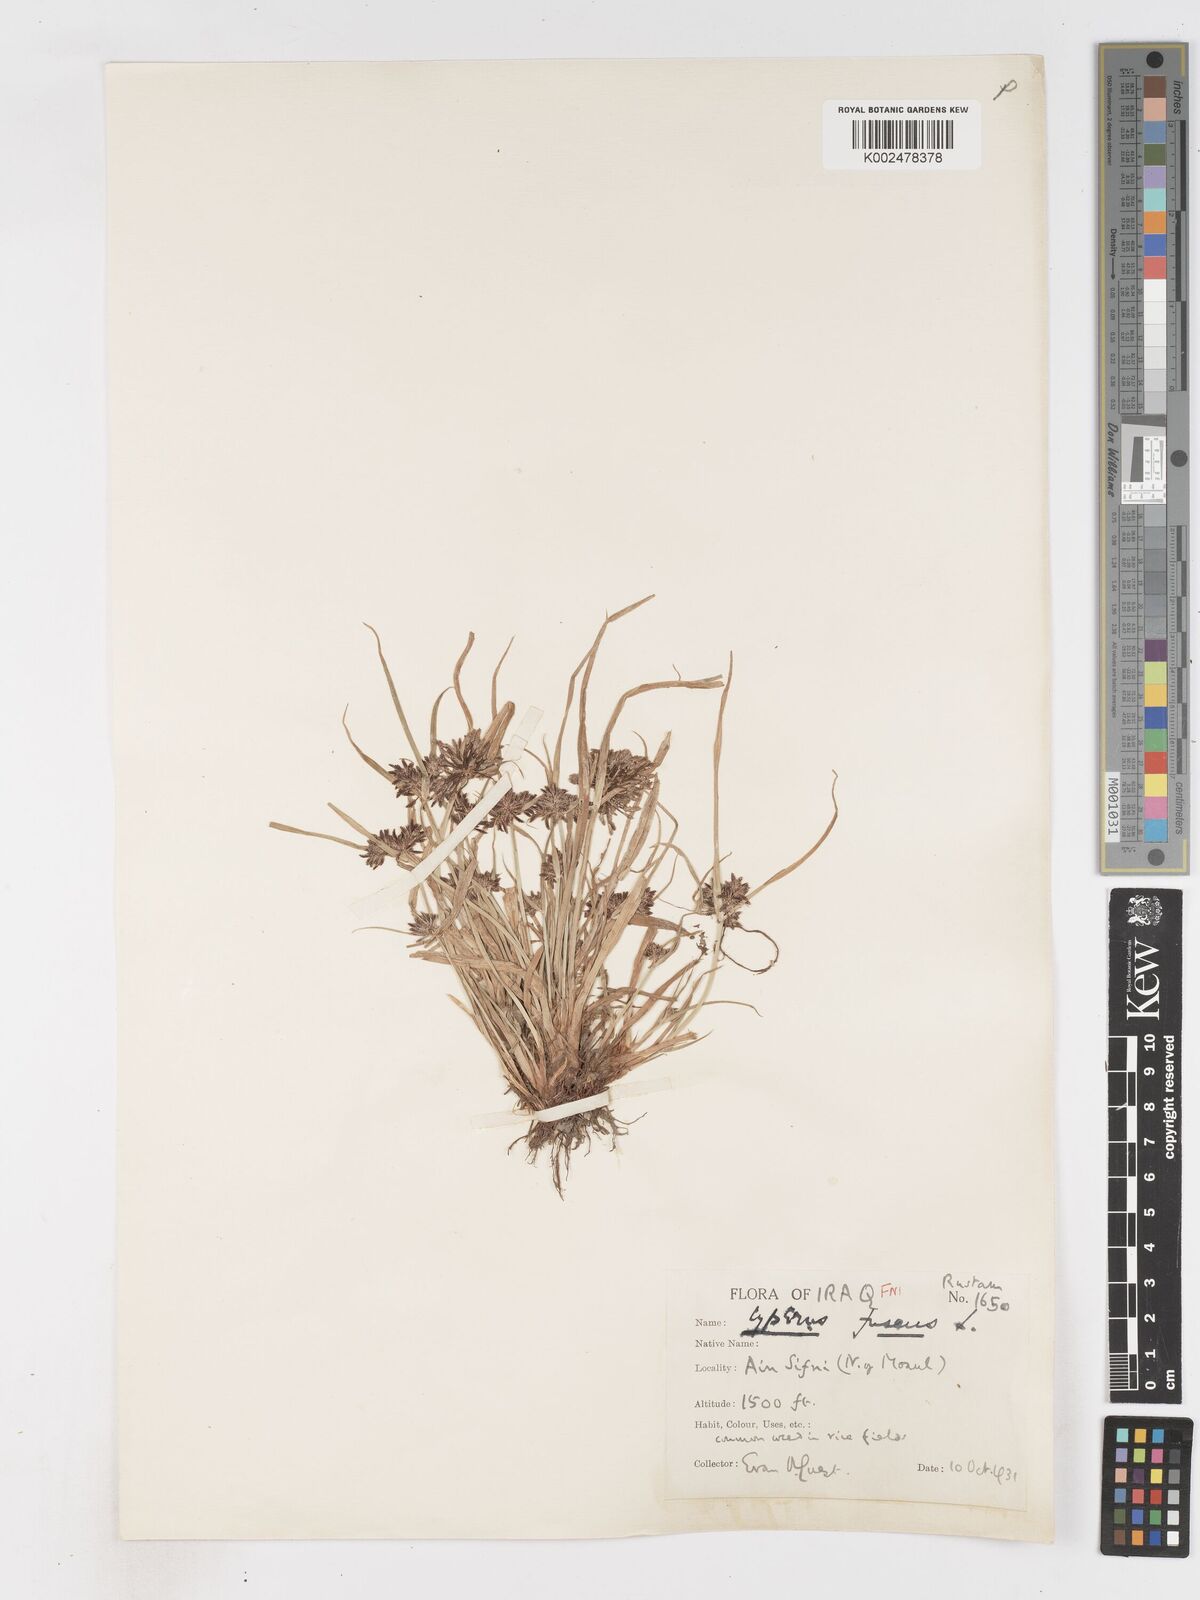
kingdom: Plantae
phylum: Tracheophyta
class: Liliopsida
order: Poales
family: Cyperaceae
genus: Cyperus
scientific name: Cyperus fuscus
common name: Brown galingale
